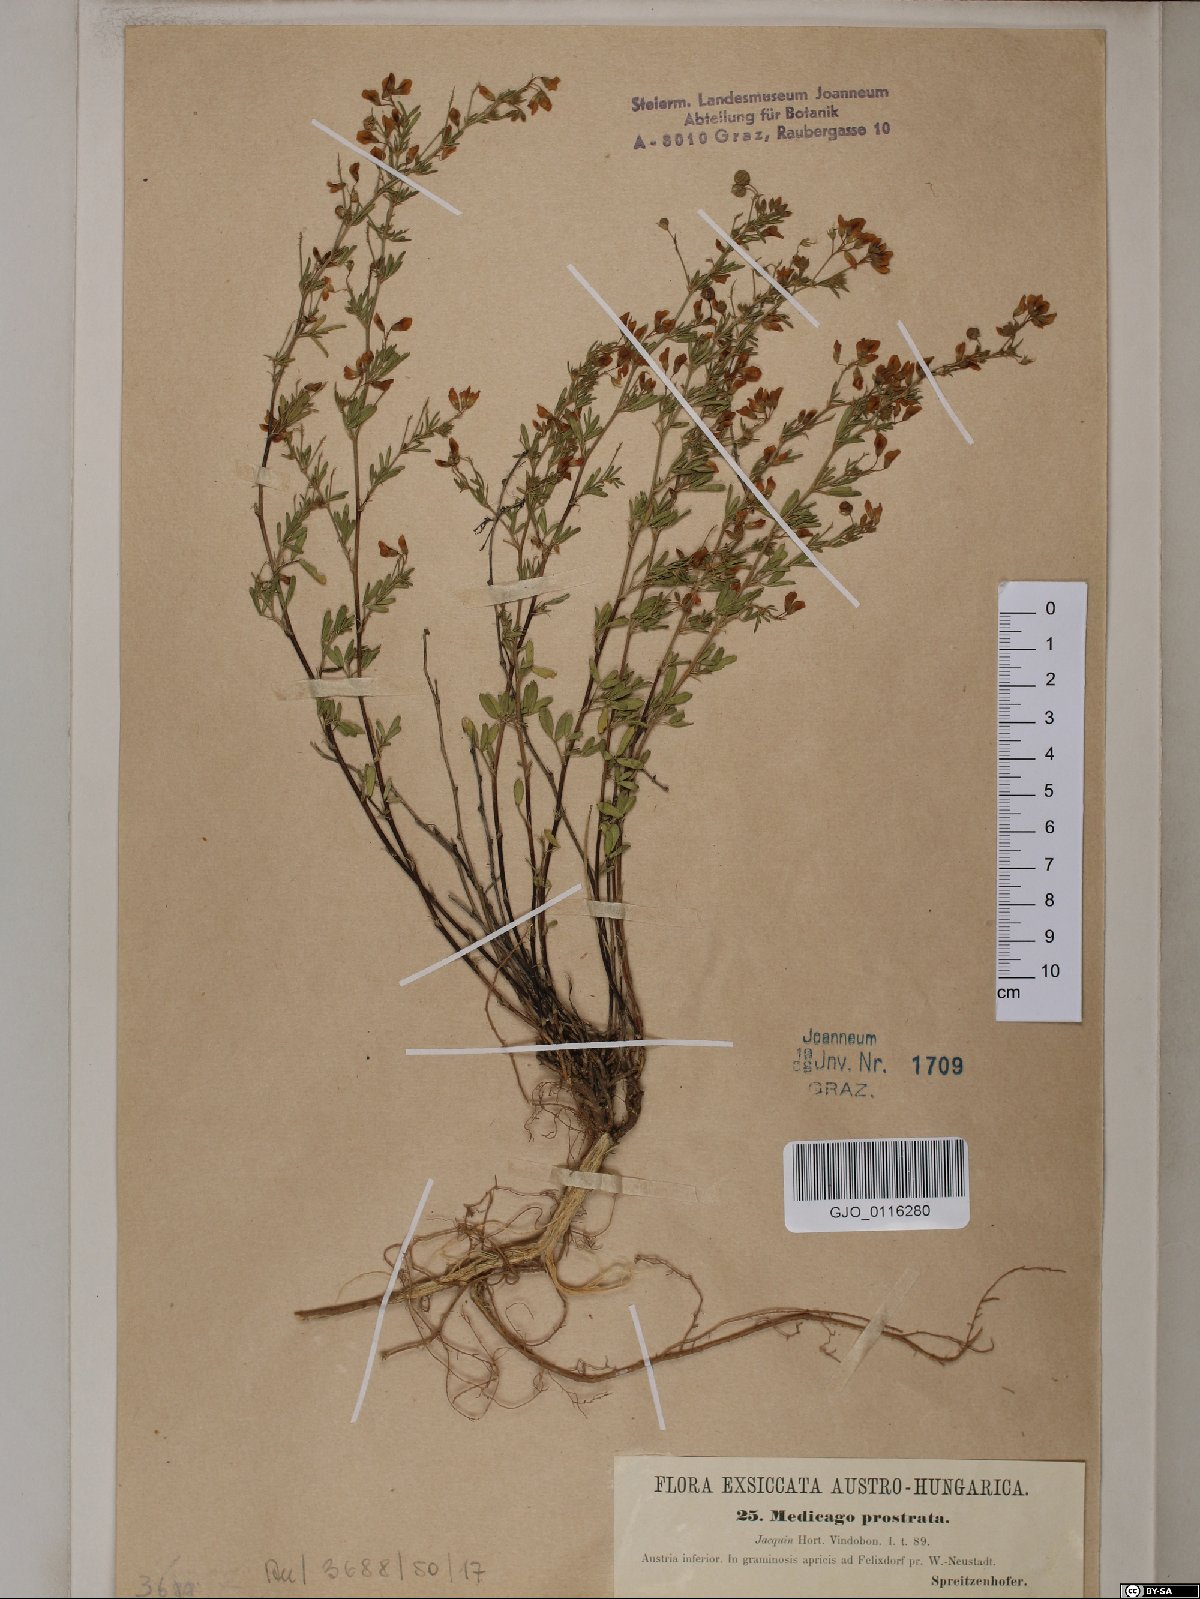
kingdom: Plantae
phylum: Tracheophyta
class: Magnoliopsida
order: Fabales
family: Fabaceae
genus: Medicago
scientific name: Medicago prostrata
